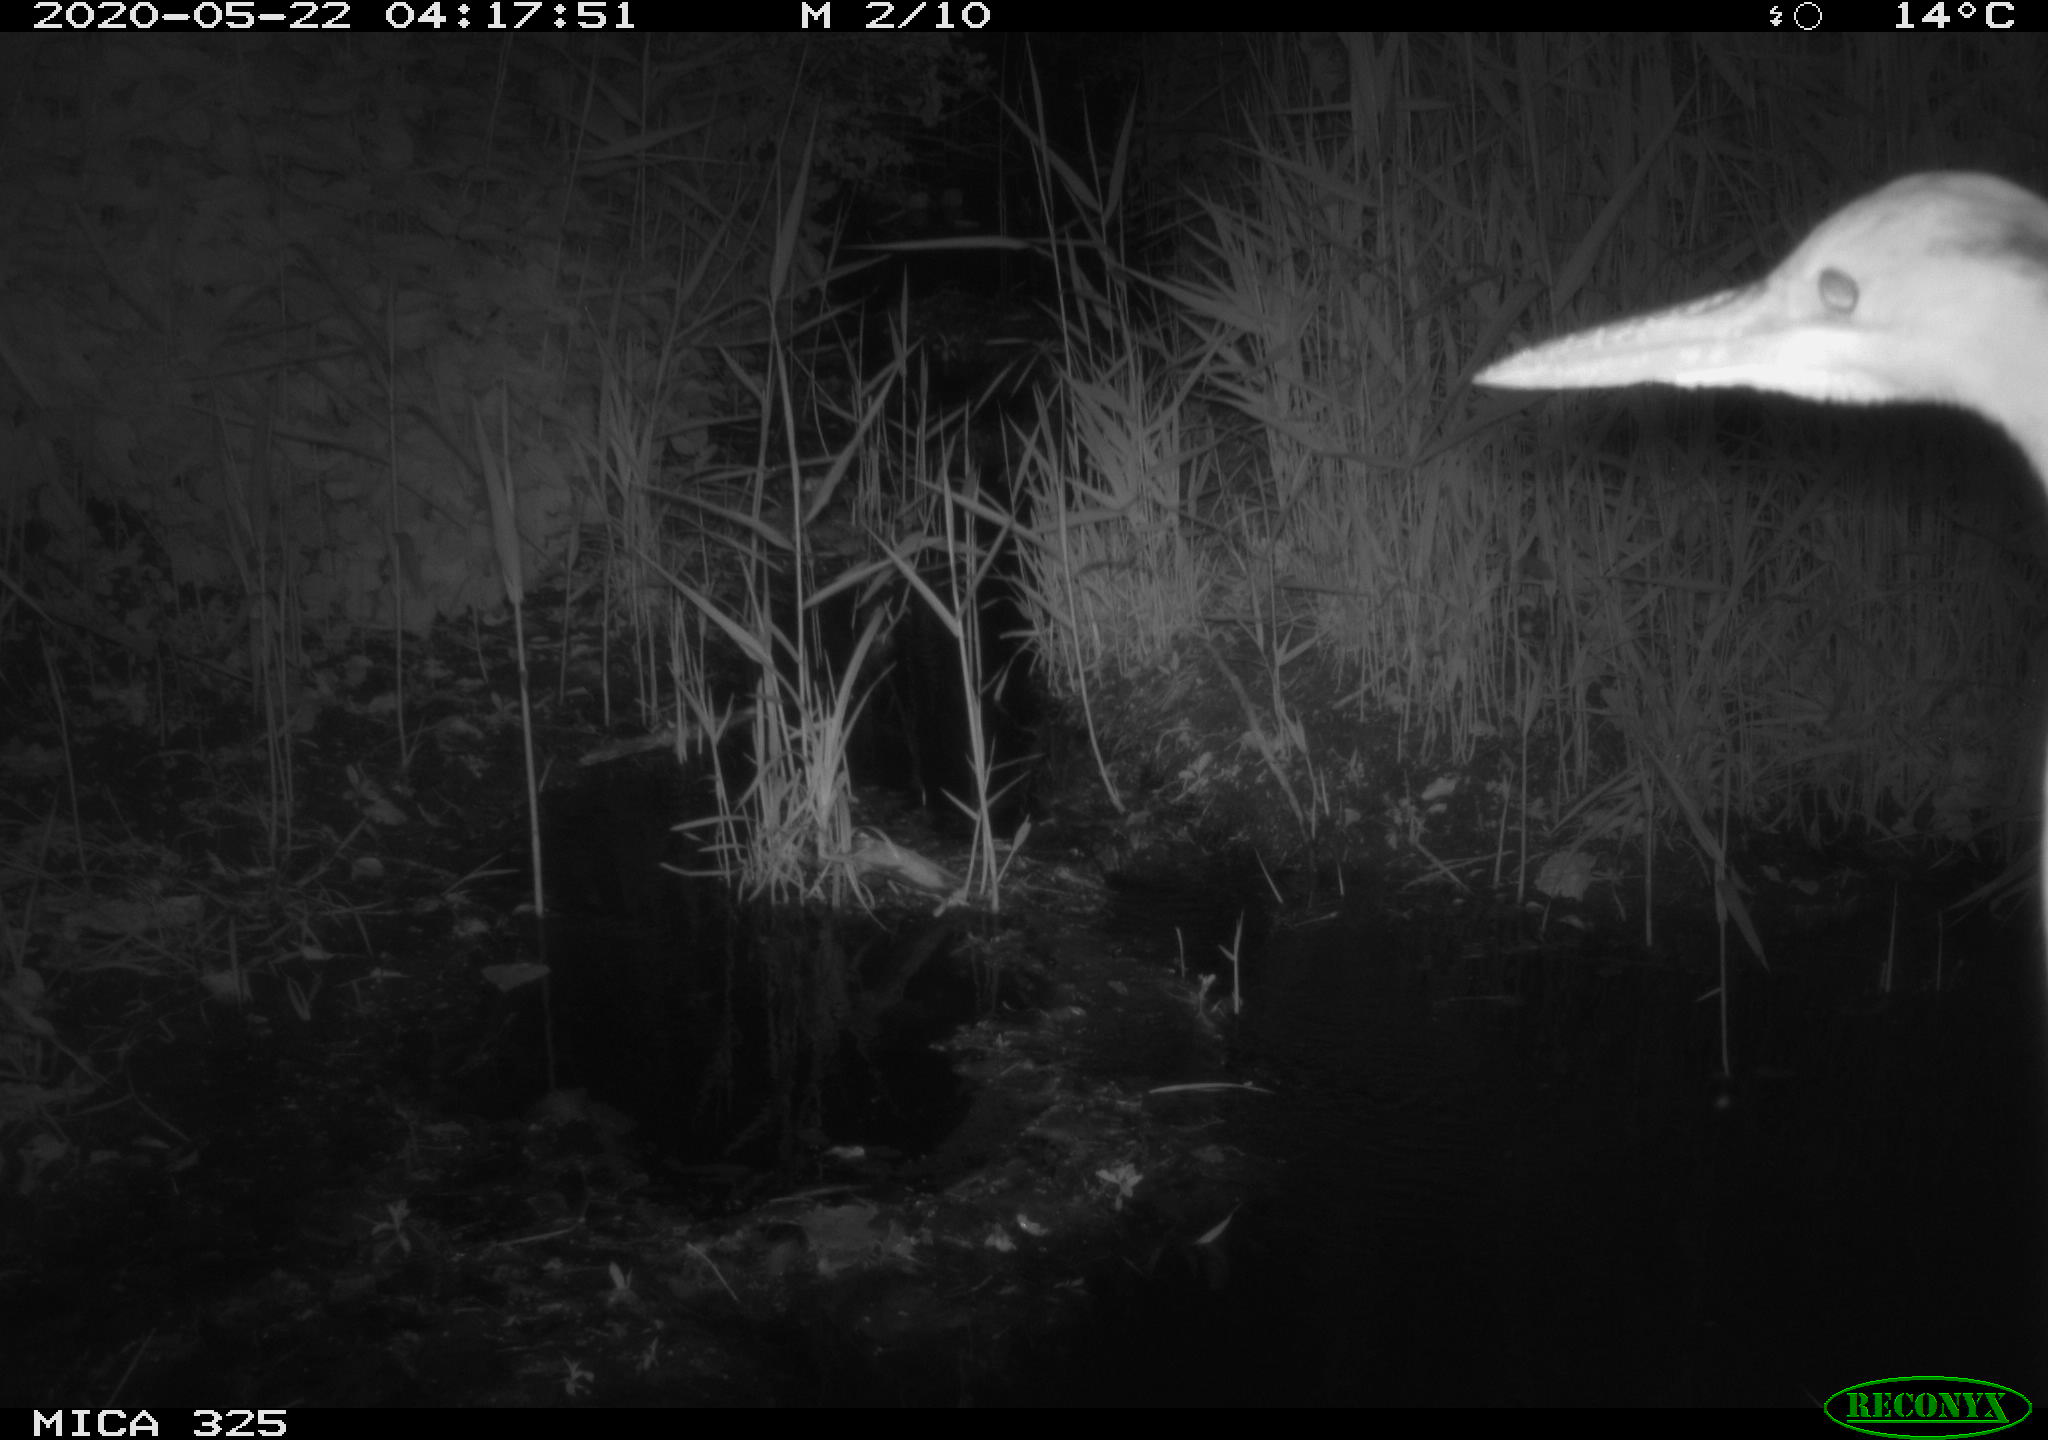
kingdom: Animalia
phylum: Chordata
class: Aves
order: Pelecaniformes
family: Ardeidae
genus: Ardea
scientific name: Ardea cinerea
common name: Grey heron
